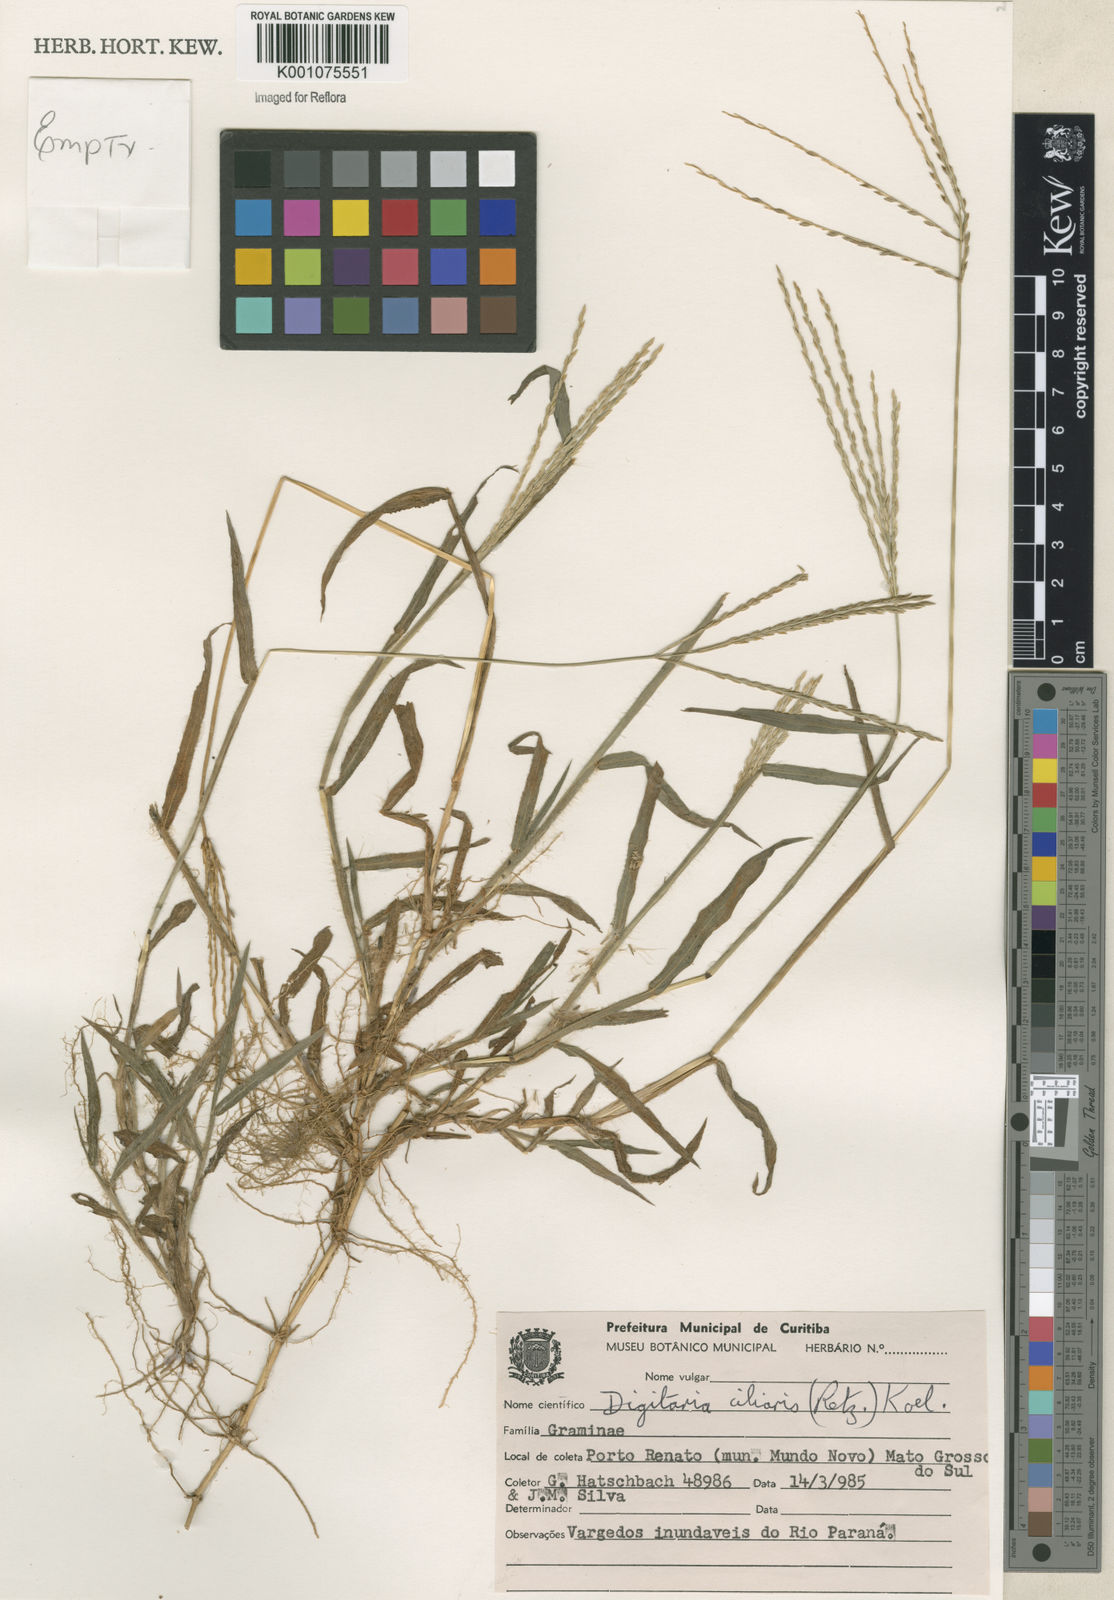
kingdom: Plantae
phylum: Tracheophyta
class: Liliopsida
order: Poales
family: Poaceae
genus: Digitaria
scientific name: Digitaria ciliaris
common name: Tropical finger-grass
